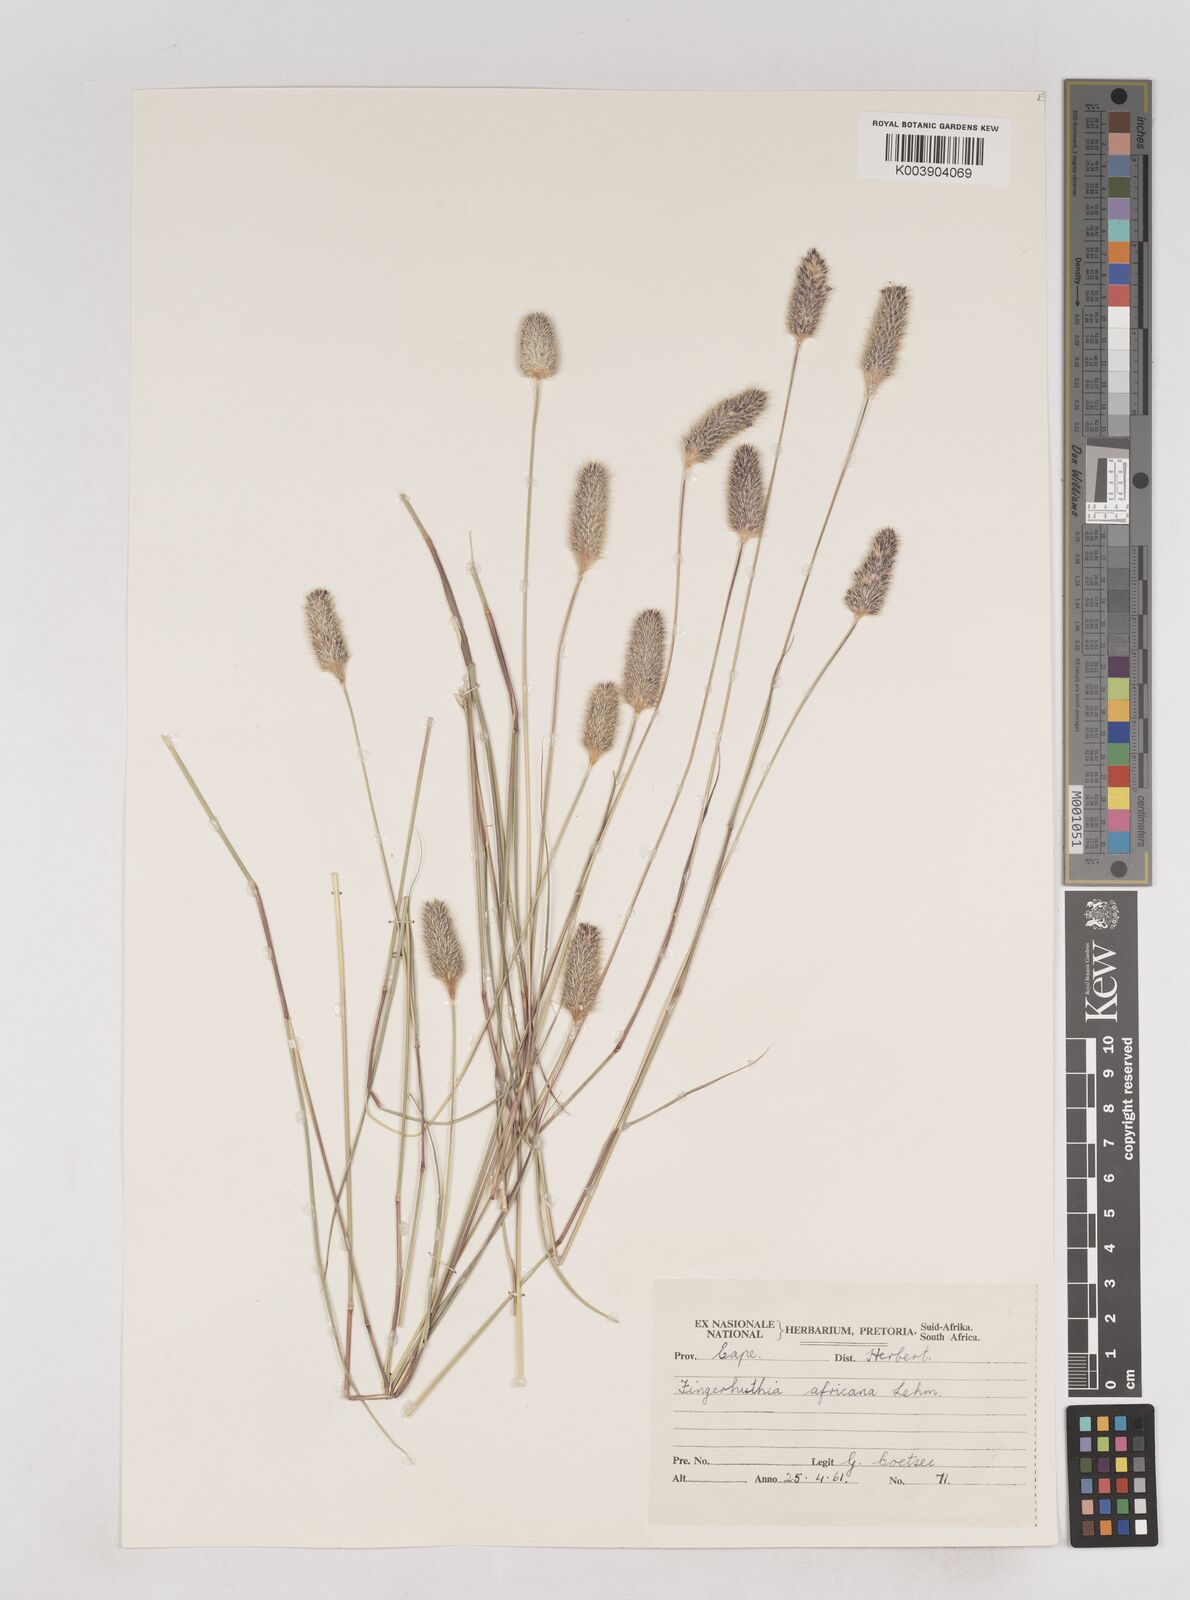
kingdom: Plantae
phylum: Tracheophyta
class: Liliopsida
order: Poales
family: Poaceae
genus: Fingerhuthia
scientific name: Fingerhuthia africana
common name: Zulu fescue
